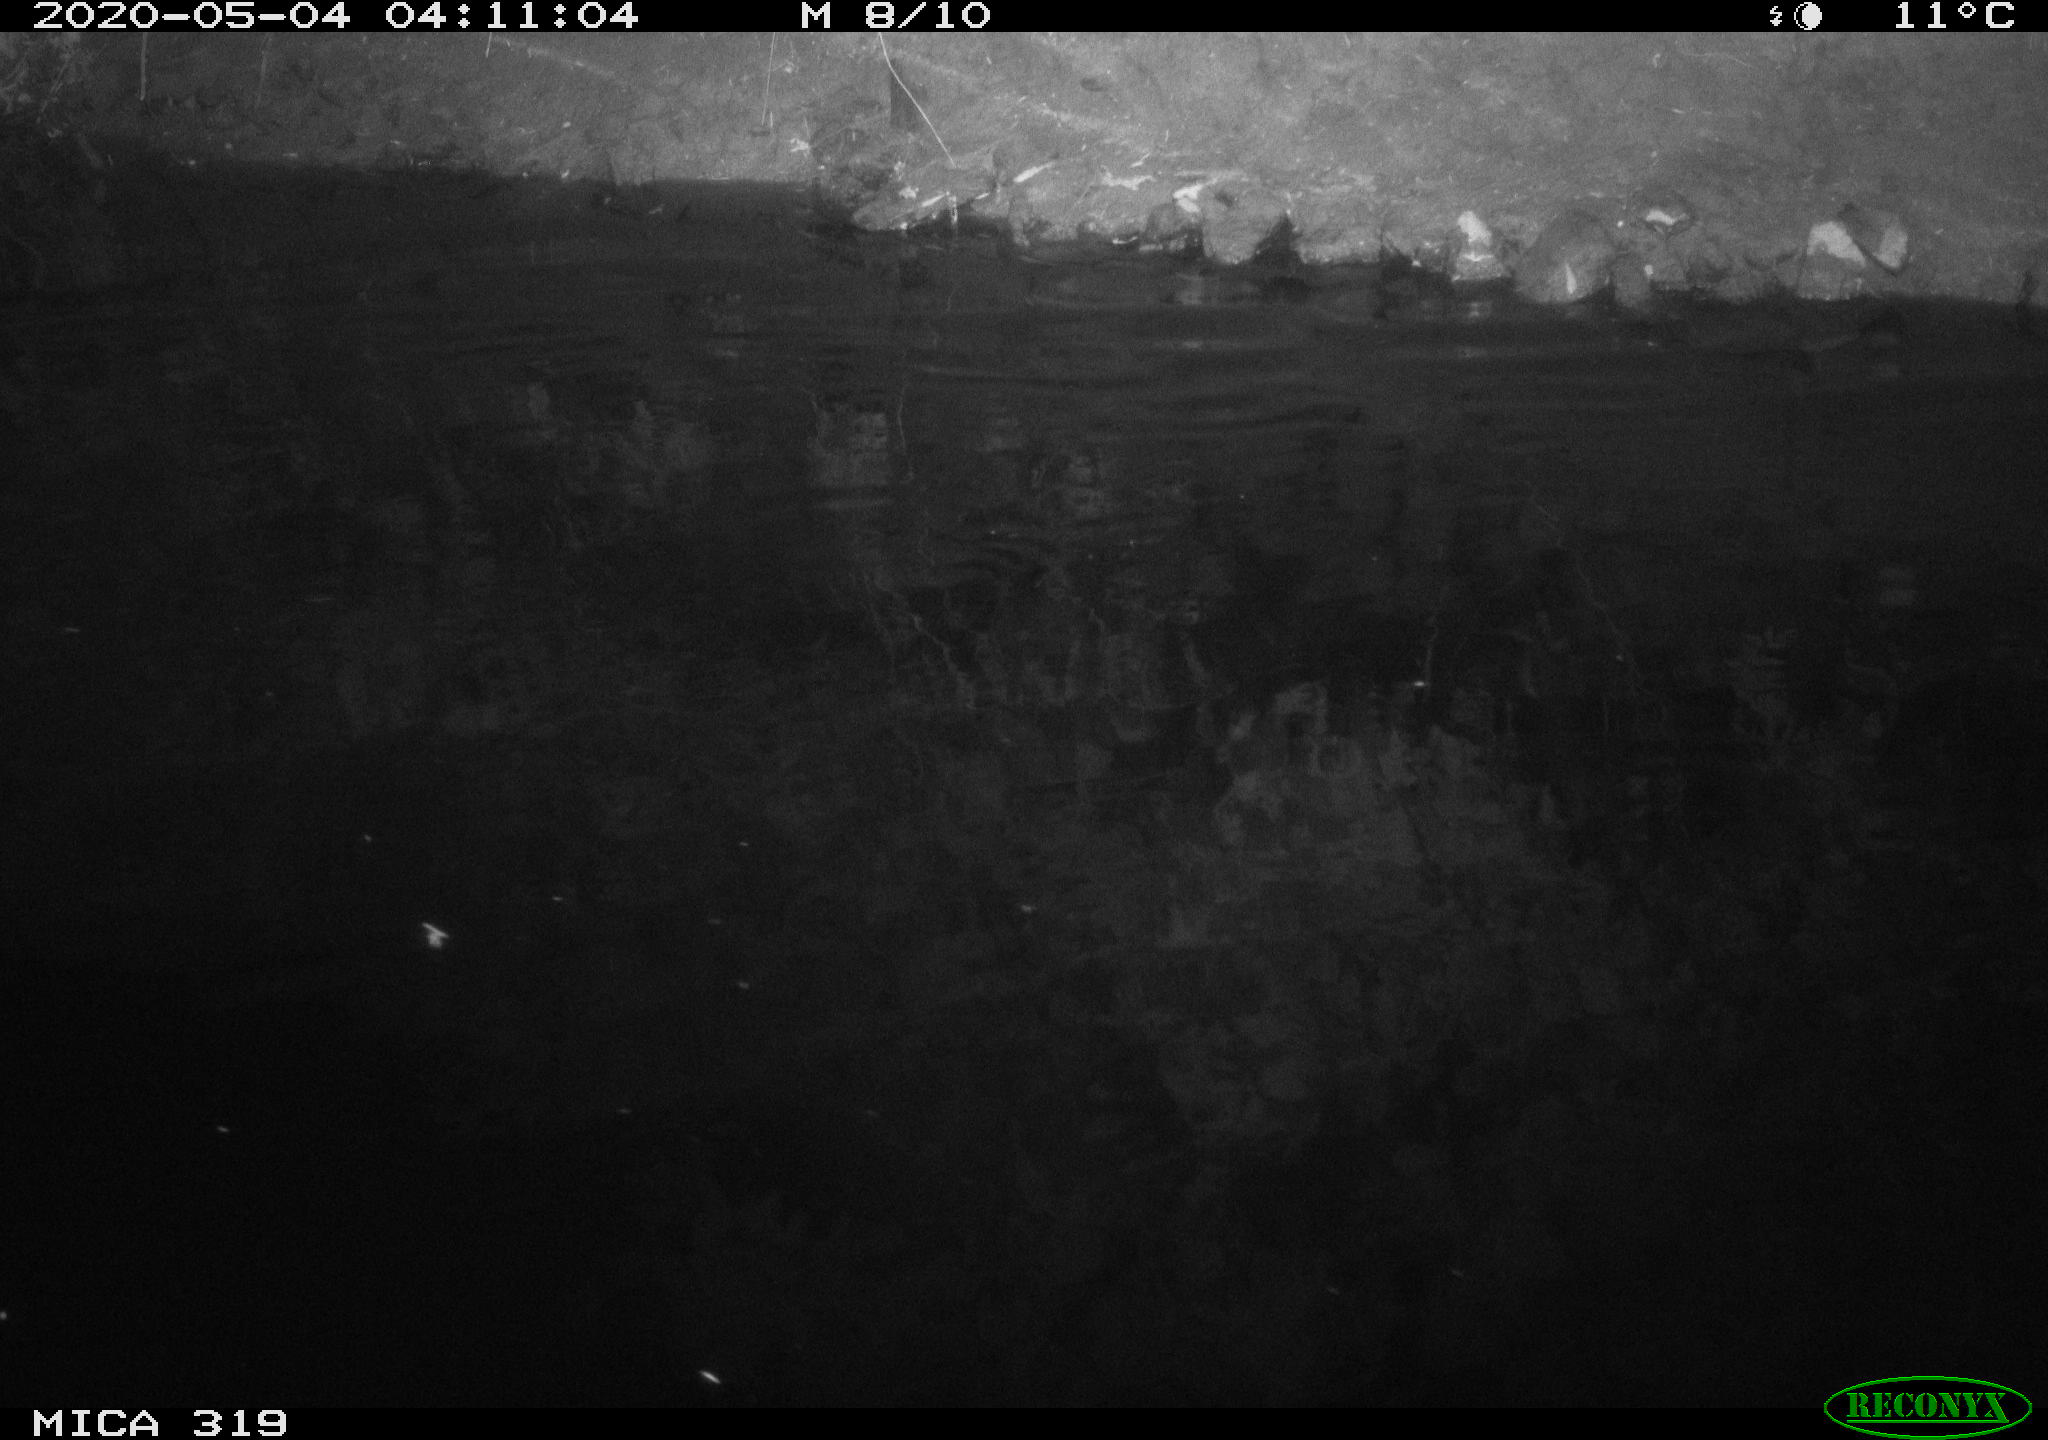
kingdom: Animalia
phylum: Chordata
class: Aves
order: Anseriformes
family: Anatidae
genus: Anas
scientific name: Anas platyrhynchos
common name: Mallard
